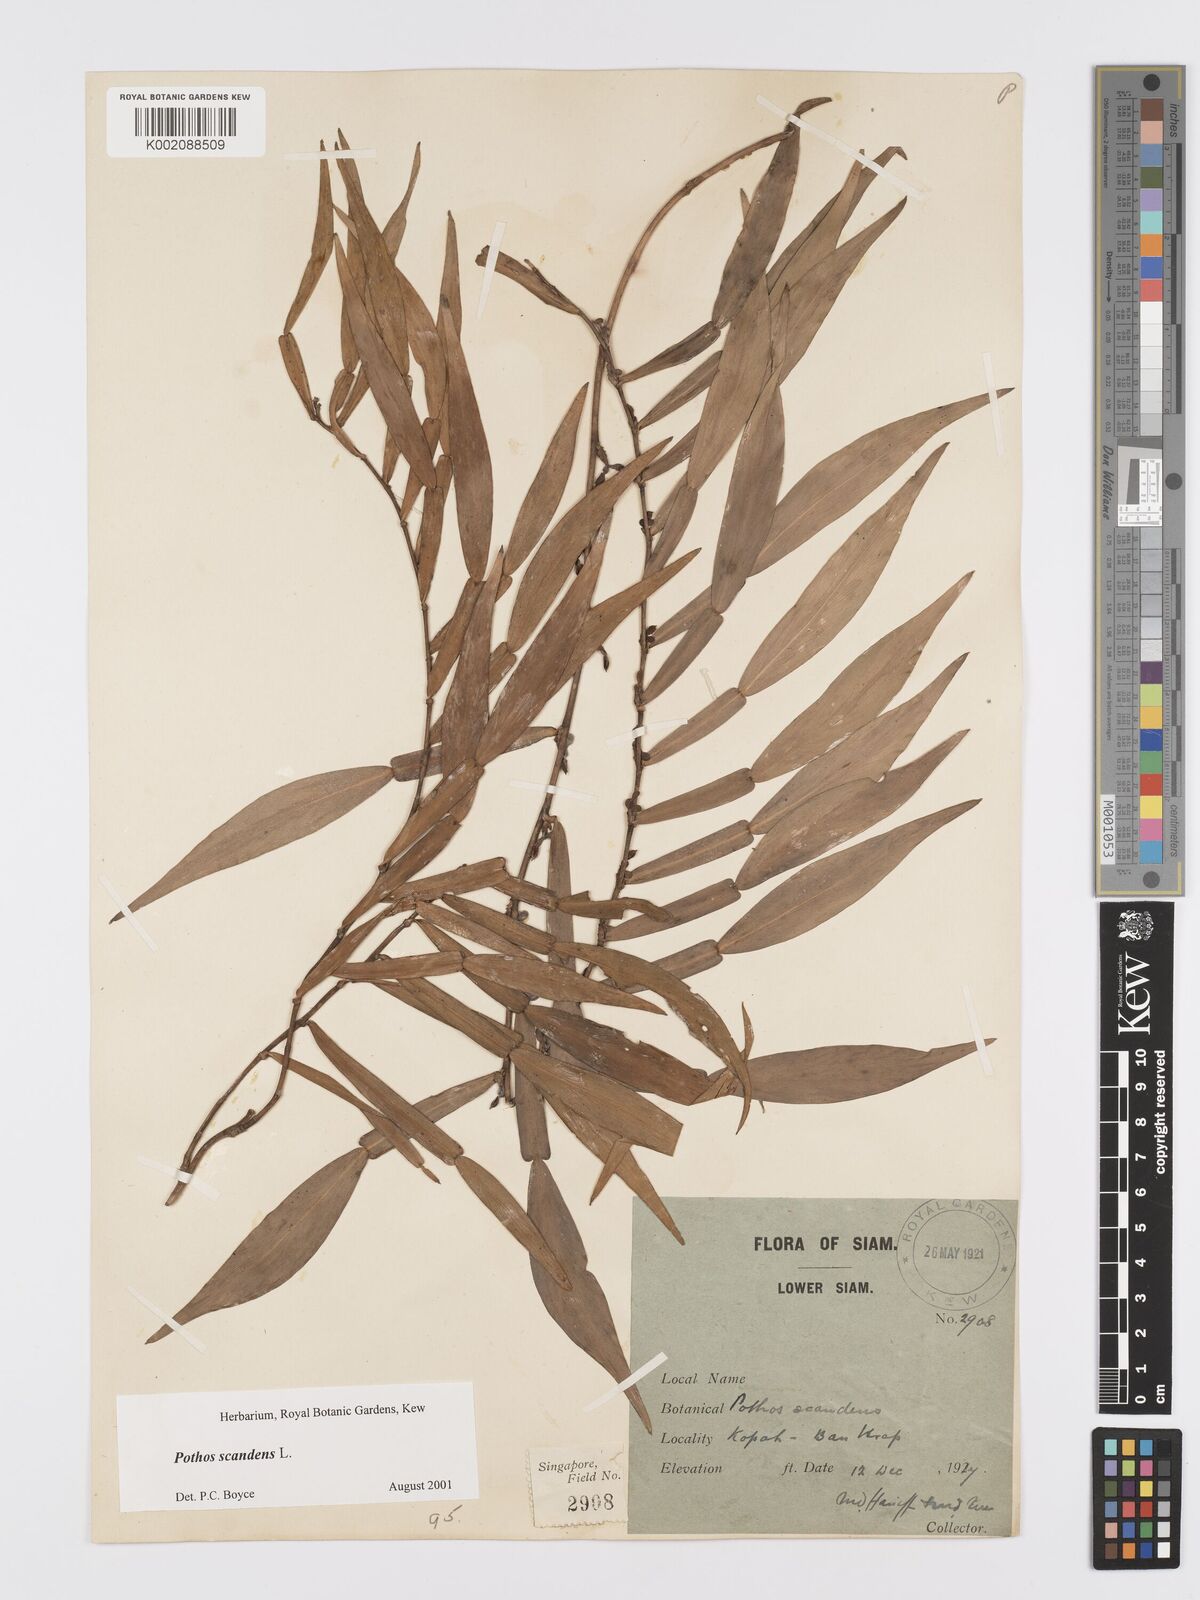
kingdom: Plantae
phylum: Tracheophyta
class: Liliopsida
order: Alismatales
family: Araceae
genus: Pothos
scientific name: Pothos scandens
